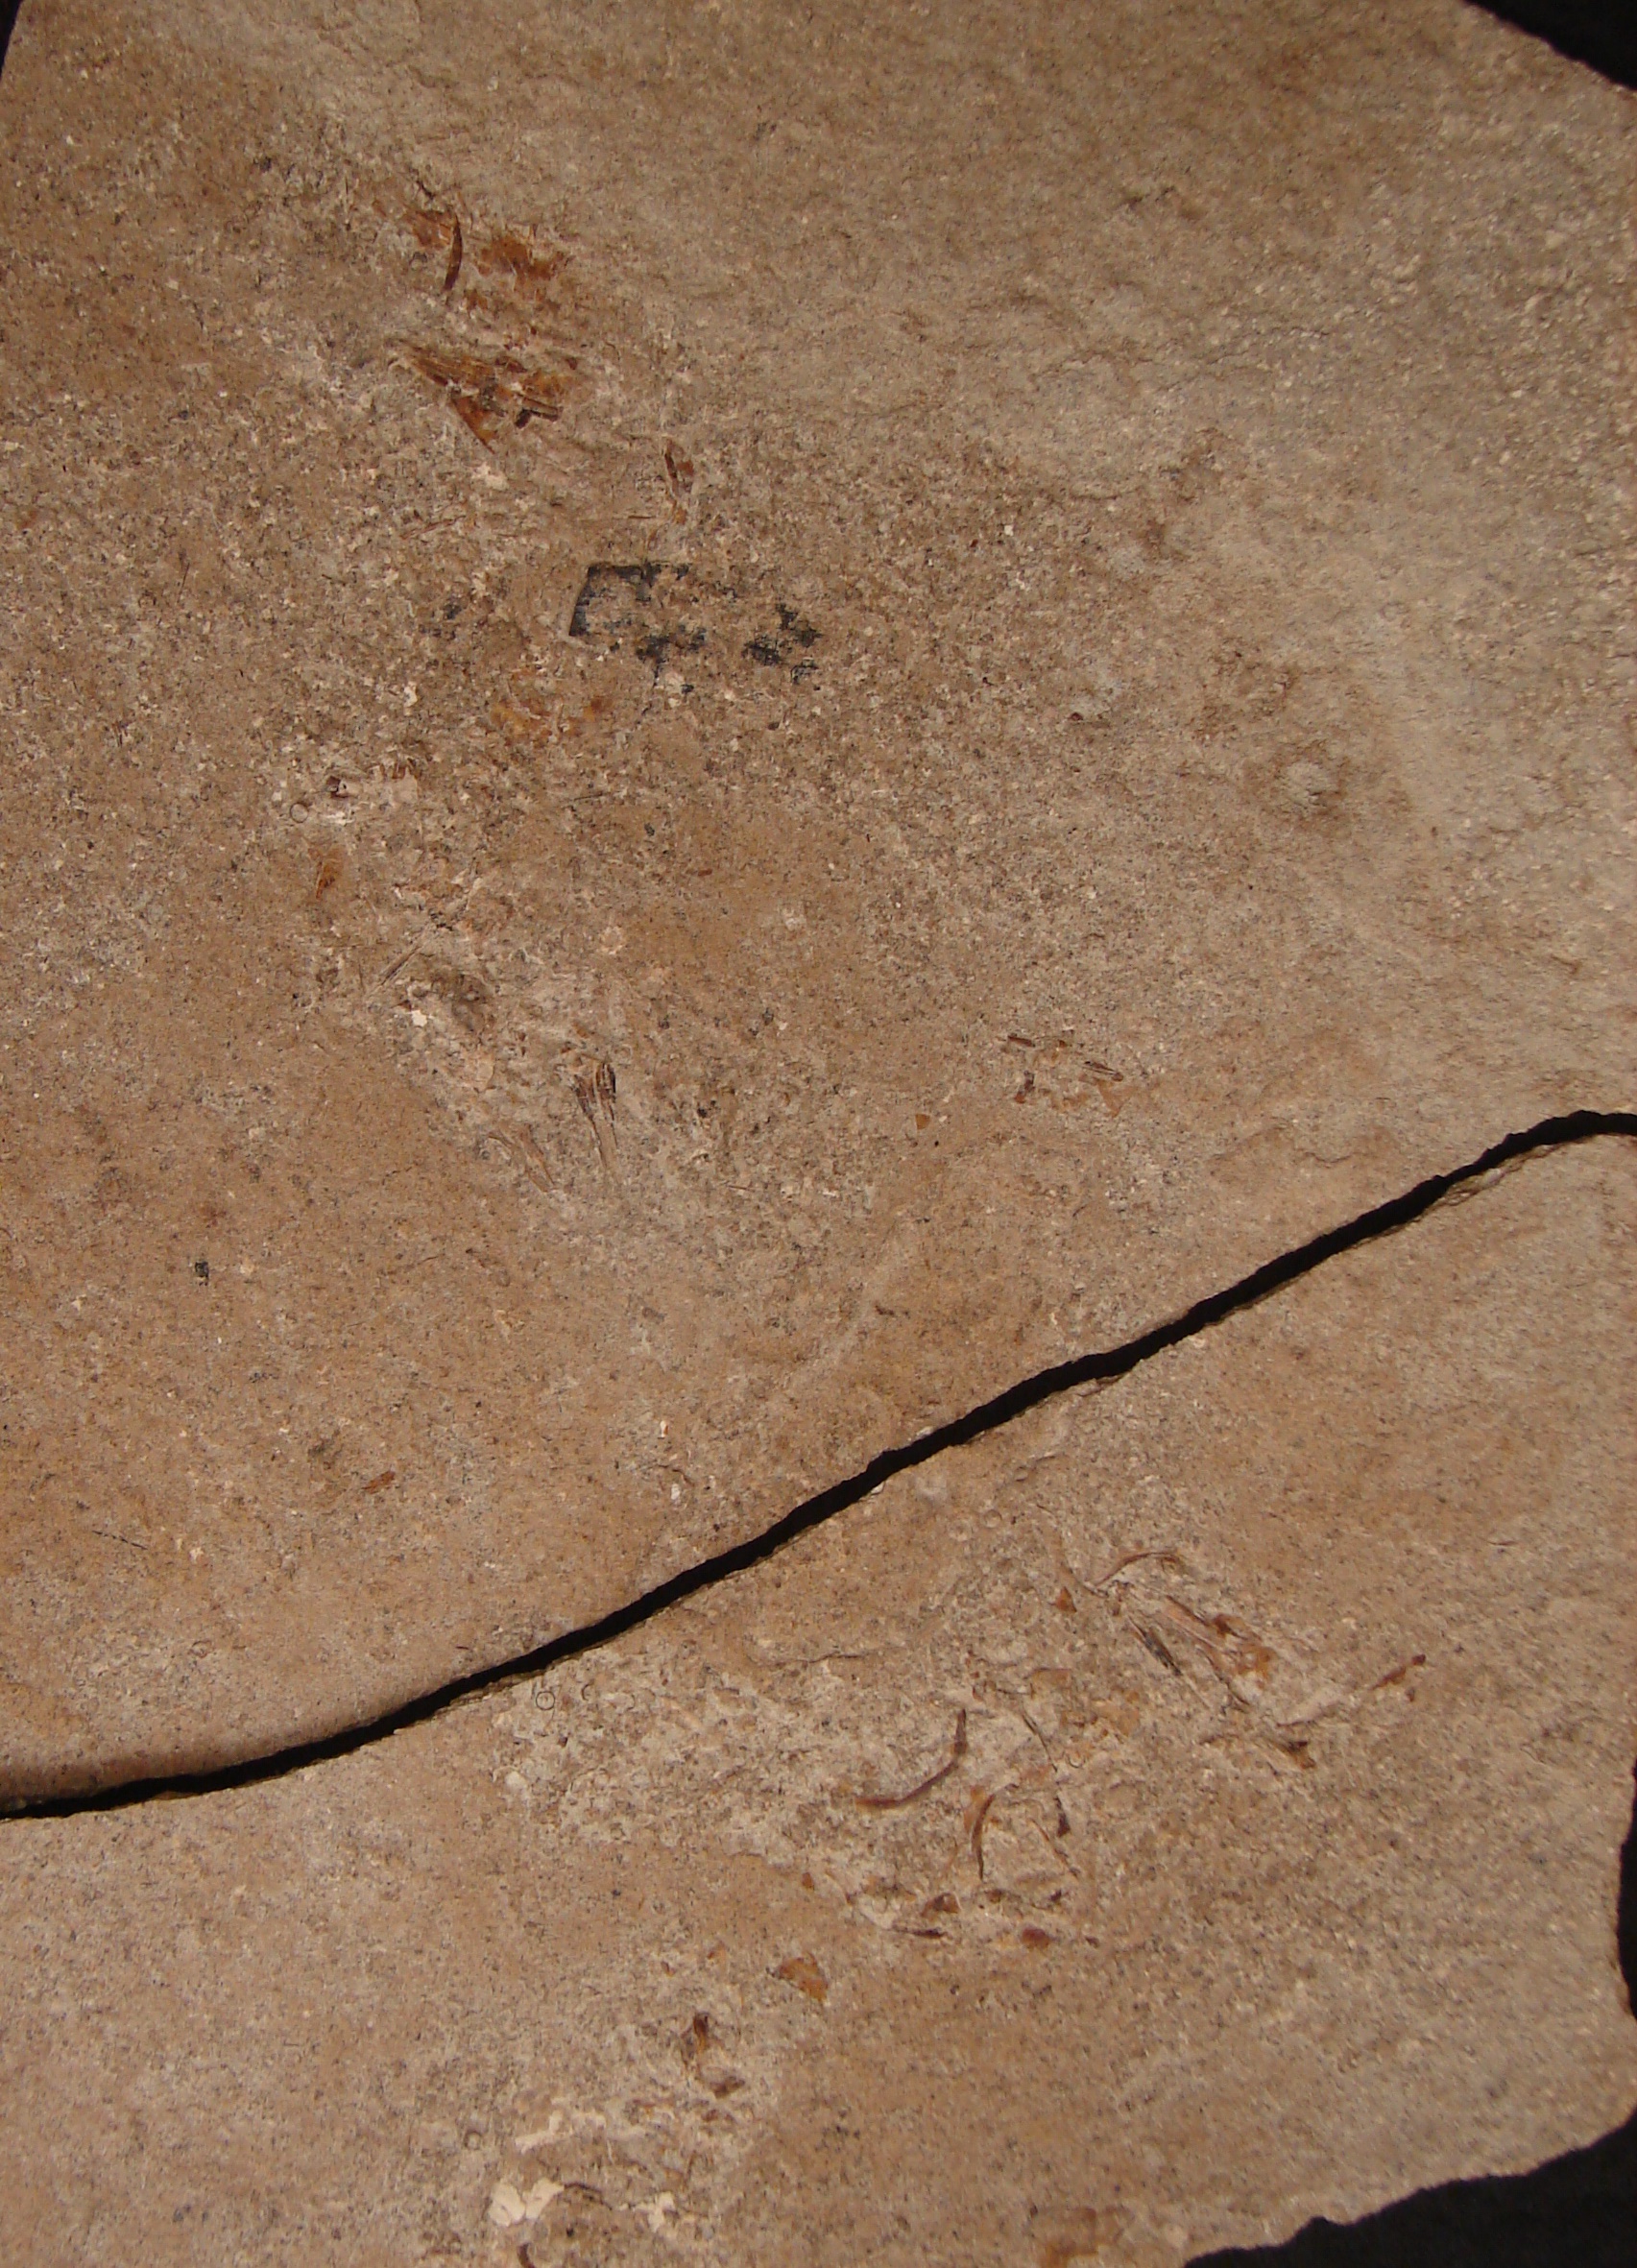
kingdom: Animalia
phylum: Chordata
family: Leptolepididae
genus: Leptolepis
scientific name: Leptolepis normandica
